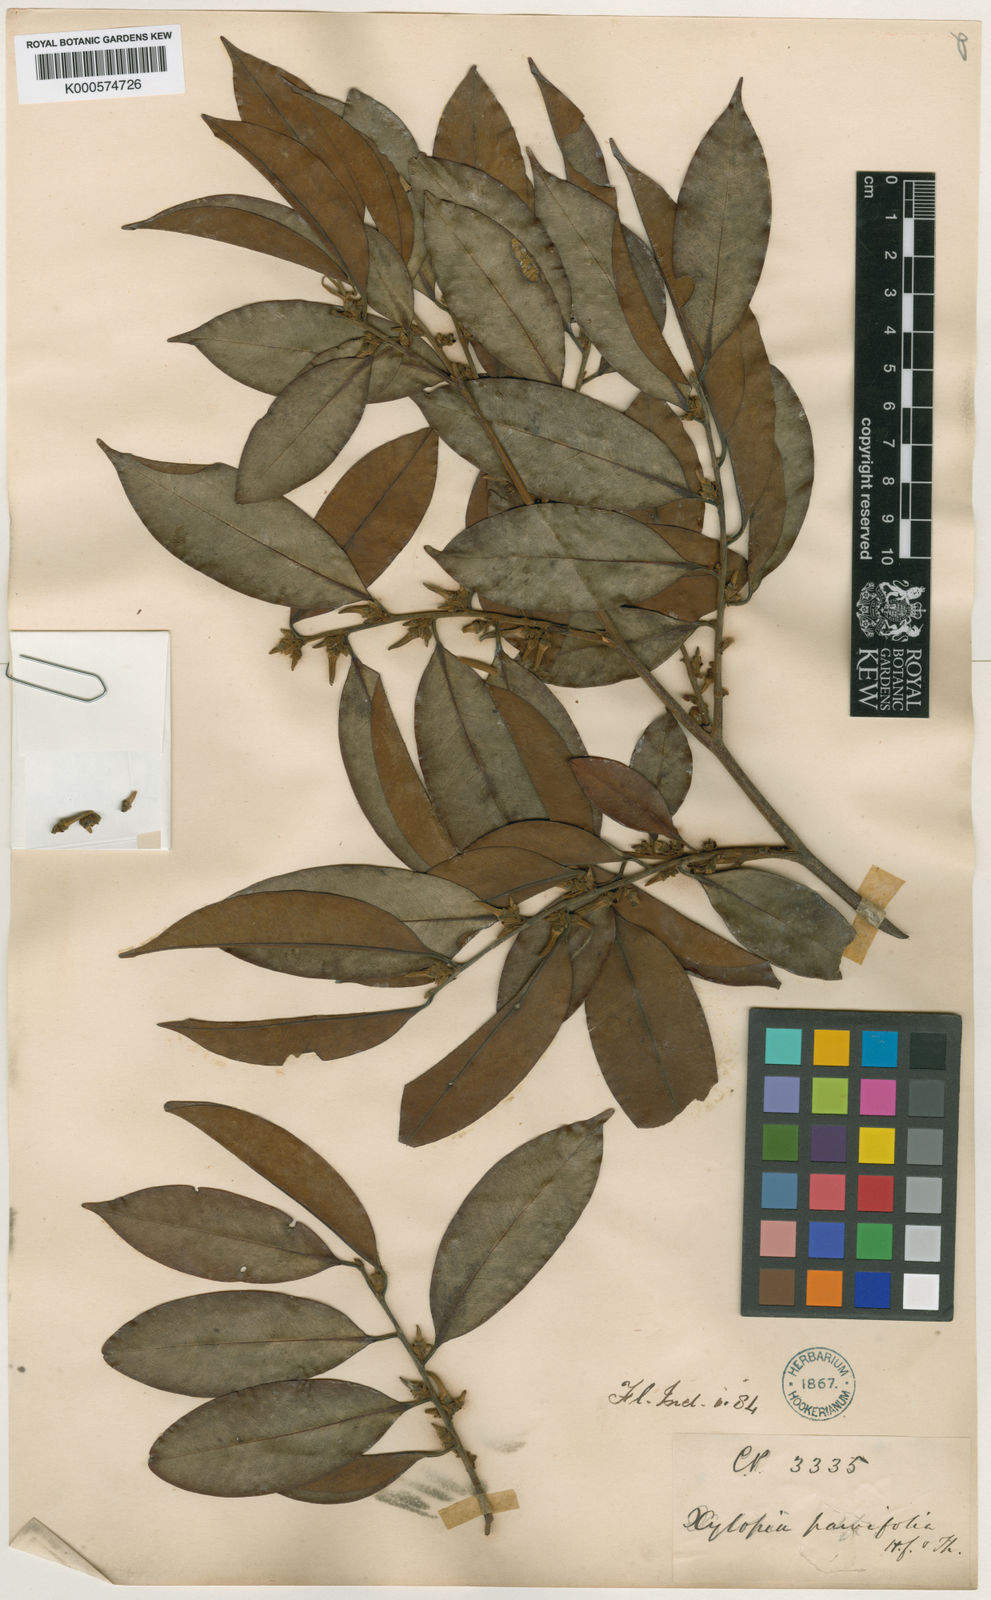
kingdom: Plantae
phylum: Tracheophyta
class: Magnoliopsida
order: Magnoliales
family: Annonaceae
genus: Xylopia
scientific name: Xylopia
